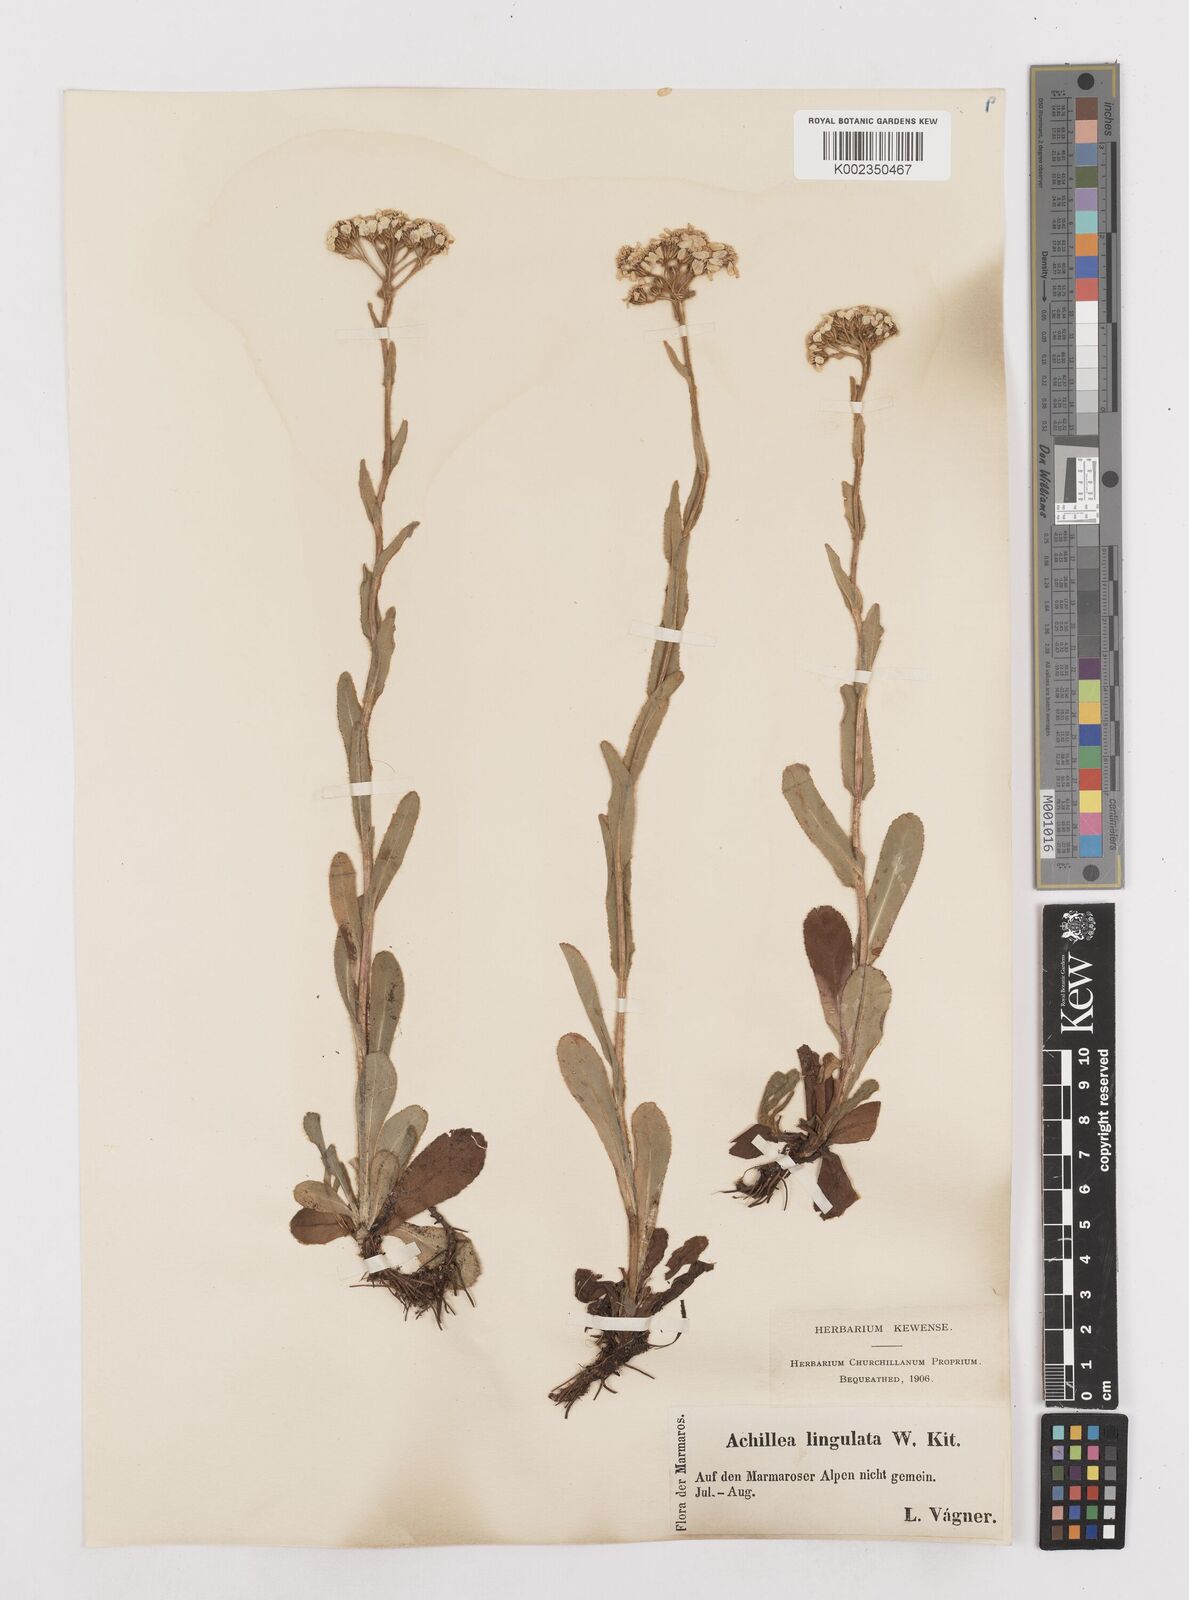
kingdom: Plantae
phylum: Tracheophyta
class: Magnoliopsida
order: Asterales
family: Asteraceae
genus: Achillea
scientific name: Achillea lingulata
